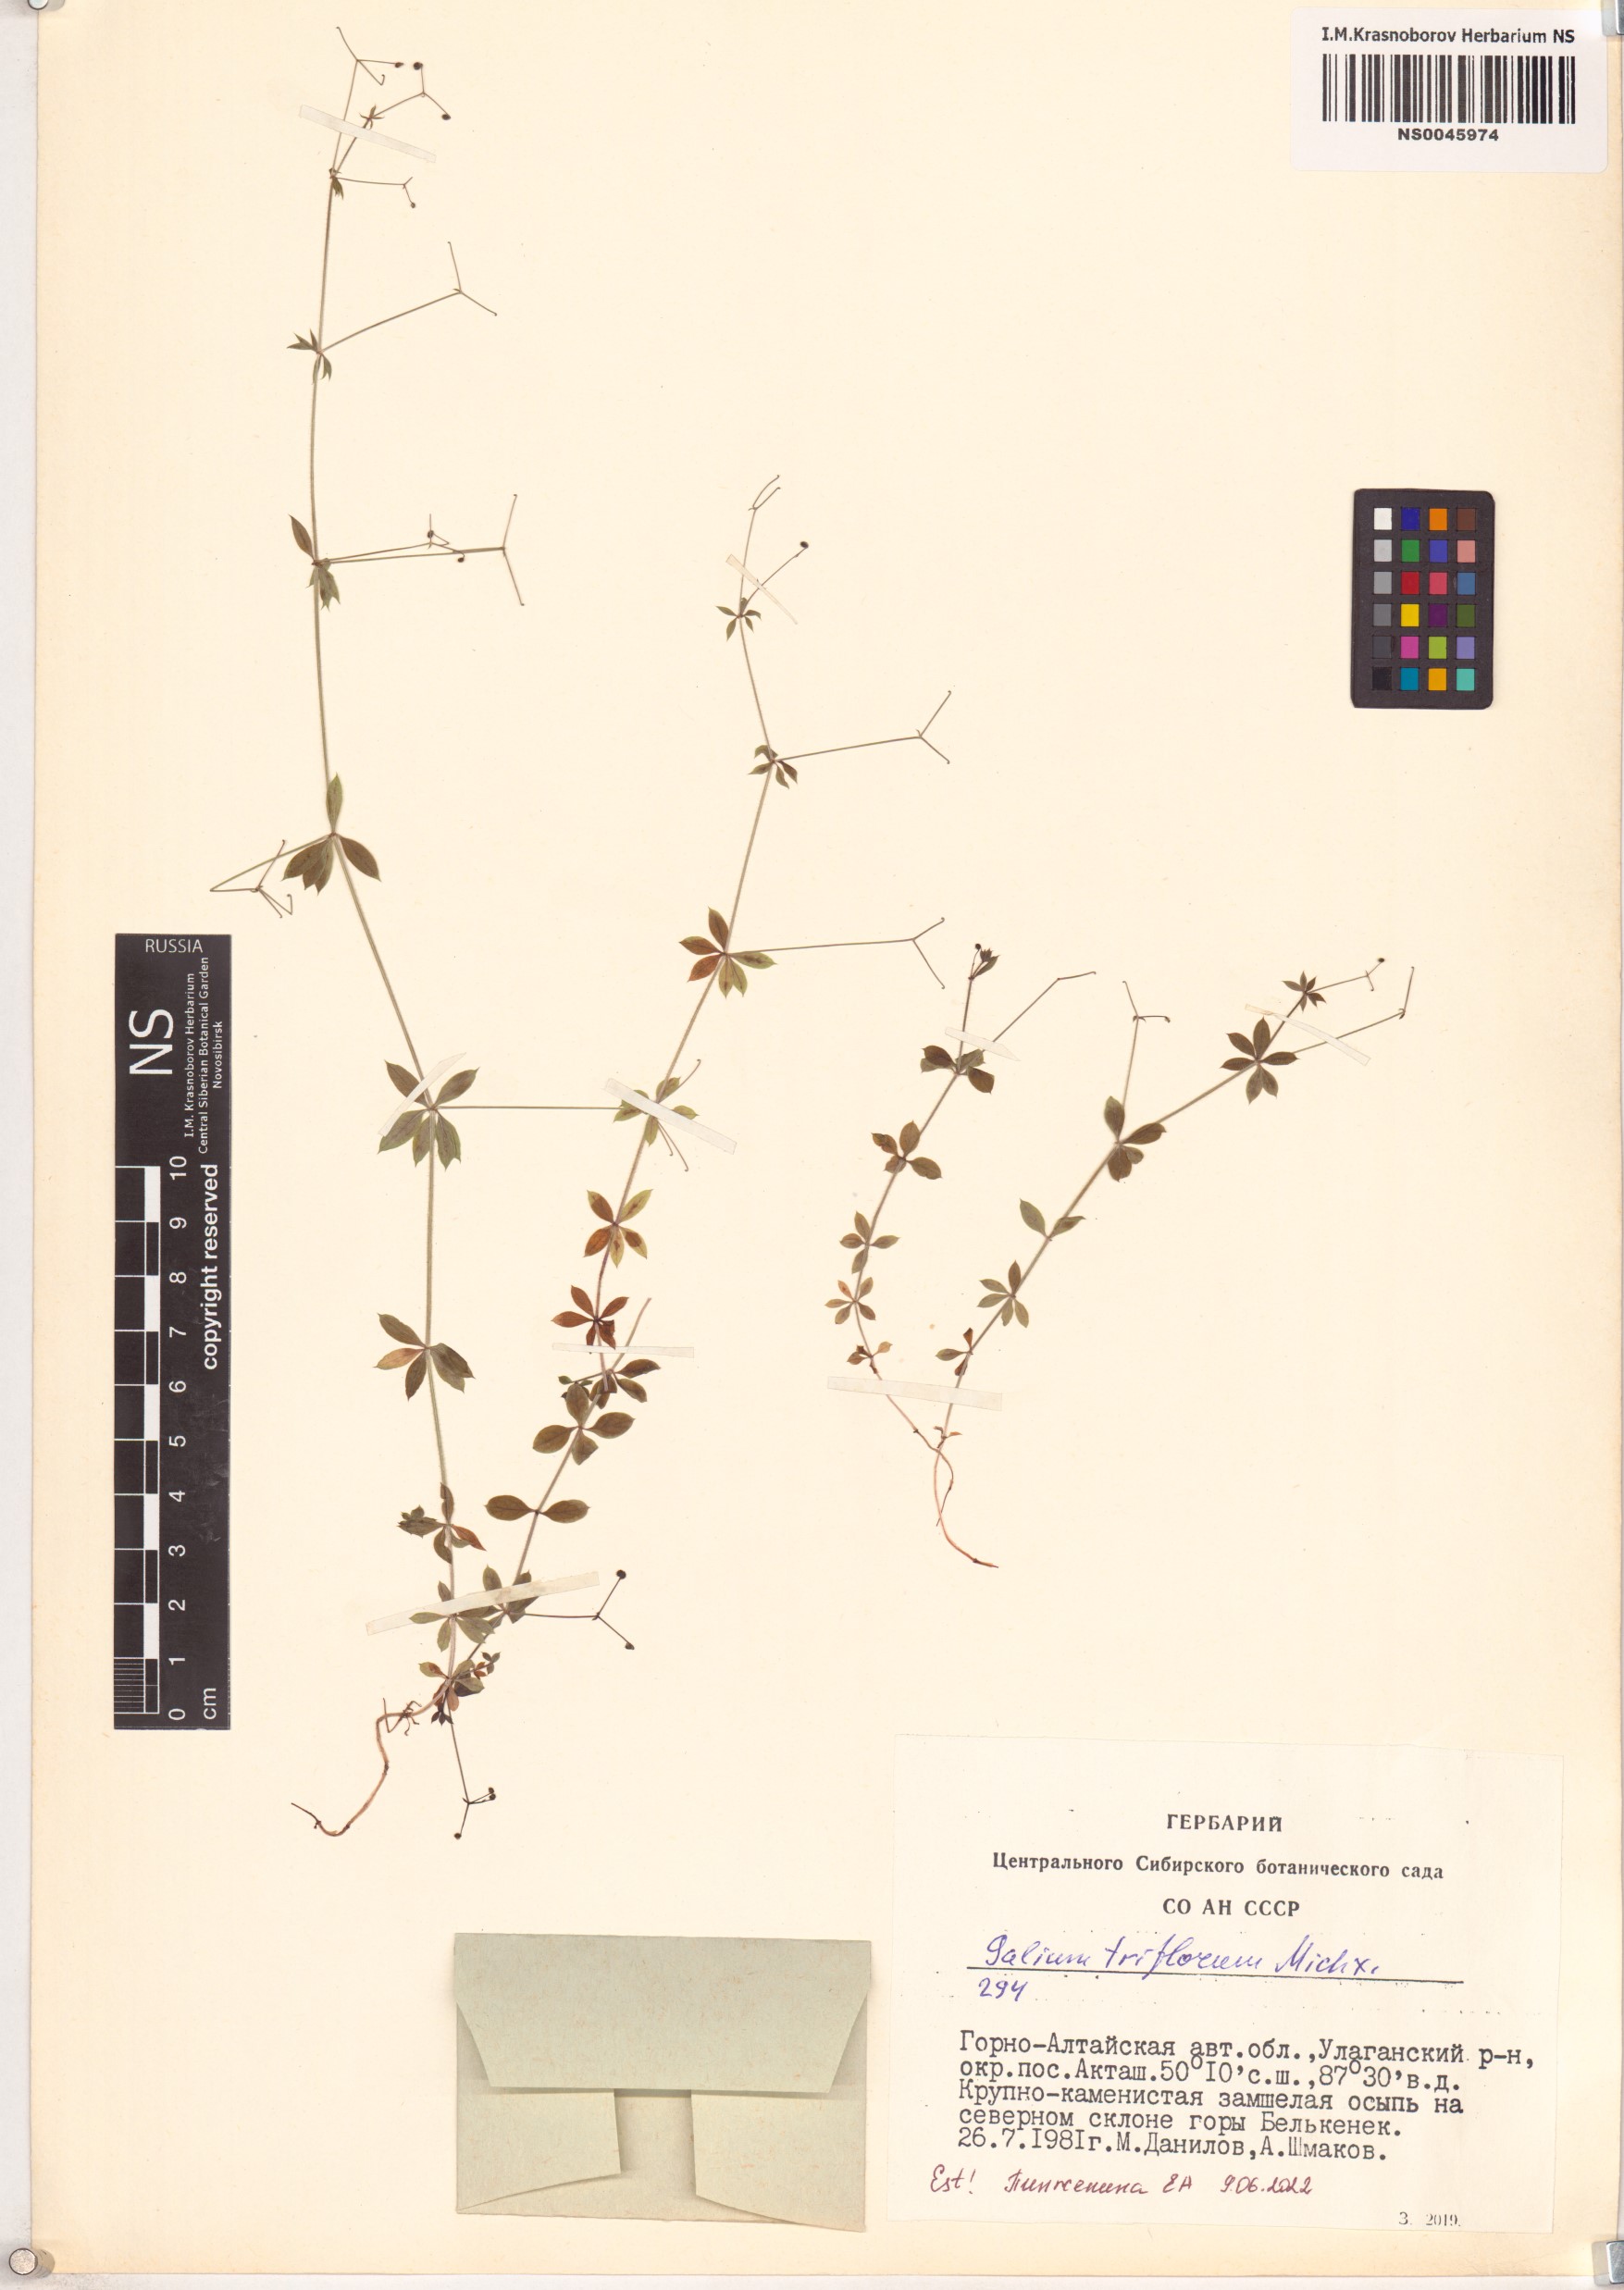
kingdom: Plantae
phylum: Tracheophyta
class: Magnoliopsida
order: Gentianales
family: Rubiaceae
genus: Galium
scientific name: Galium triflorum
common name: Fragrant bedstraw
